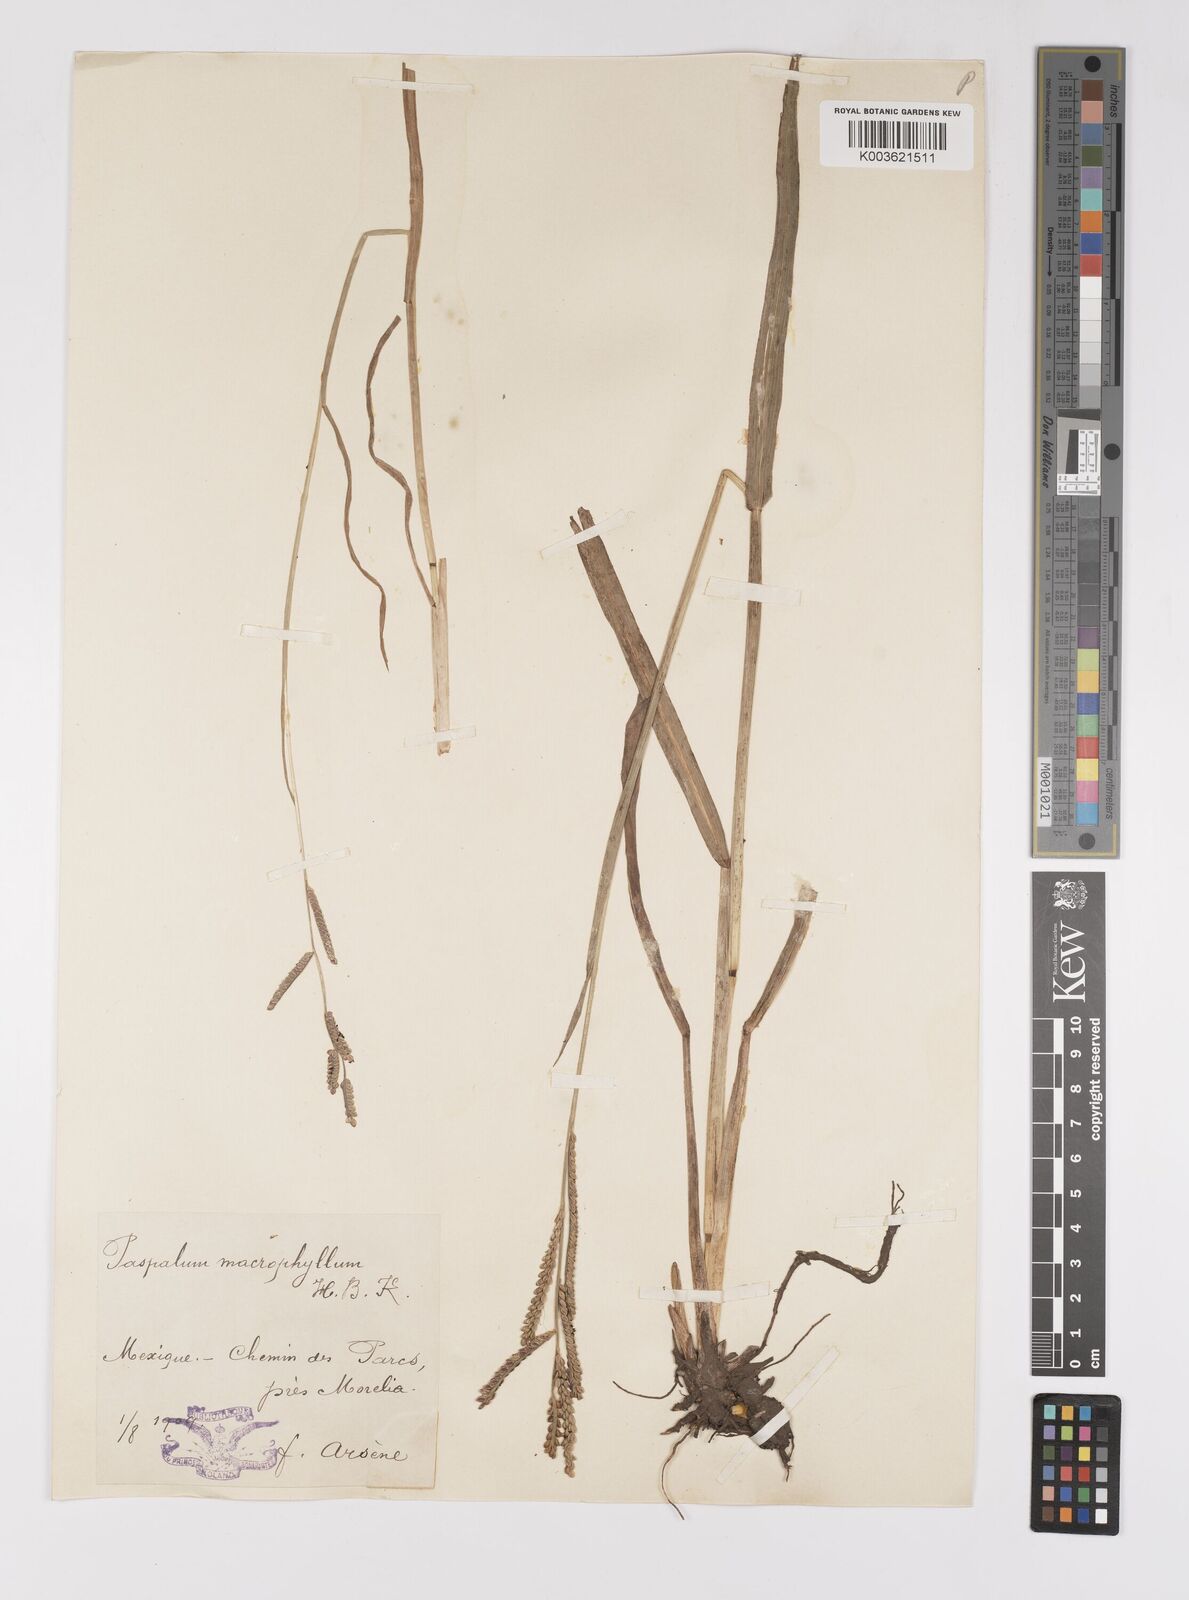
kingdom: Plantae
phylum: Tracheophyta
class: Liliopsida
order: Poales
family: Poaceae
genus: Paspalum
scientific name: Paspalum denticulatum
